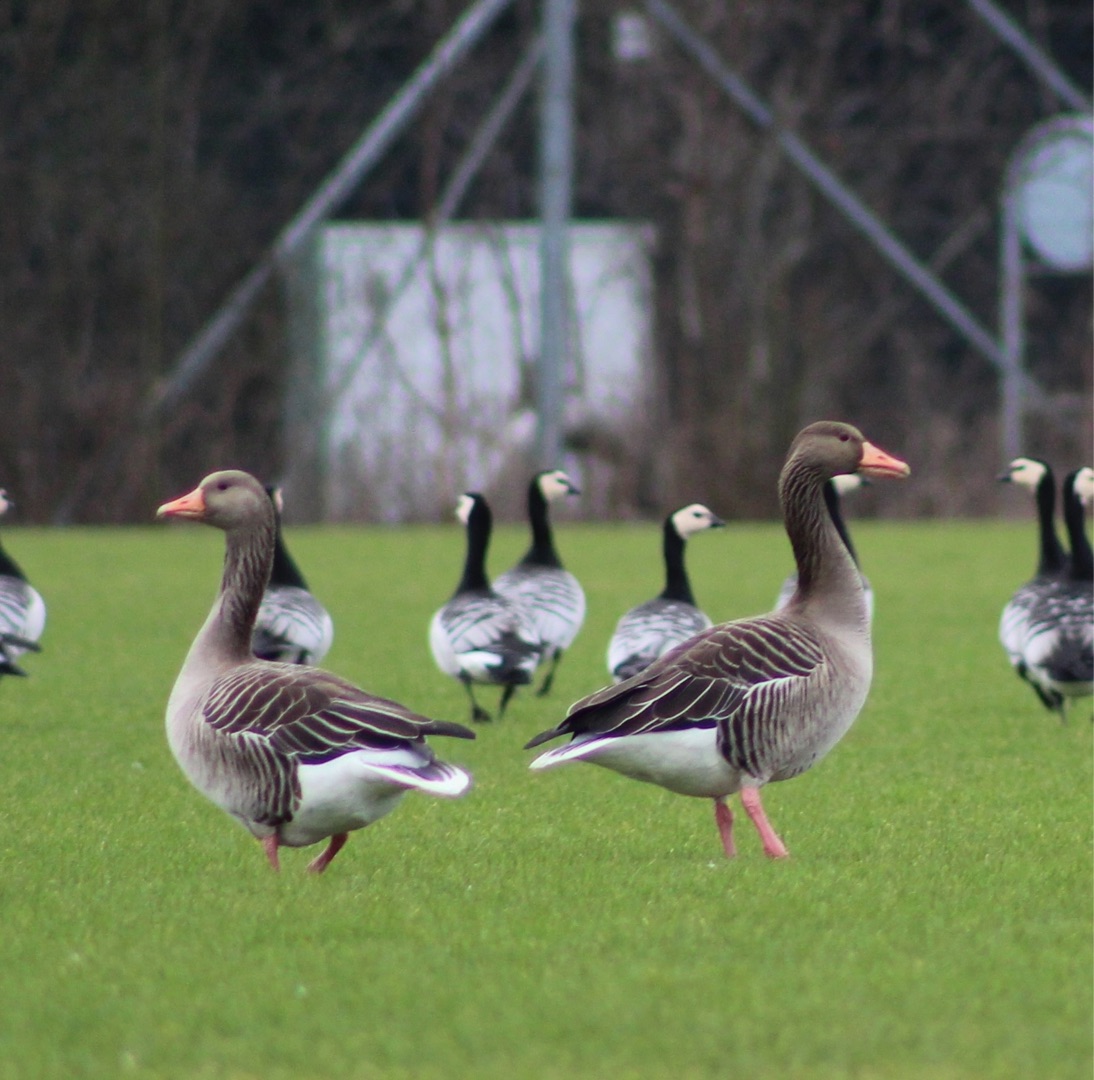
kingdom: Animalia
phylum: Chordata
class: Aves
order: Anseriformes
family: Anatidae
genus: Anser
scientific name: Anser anser
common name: Grågås
